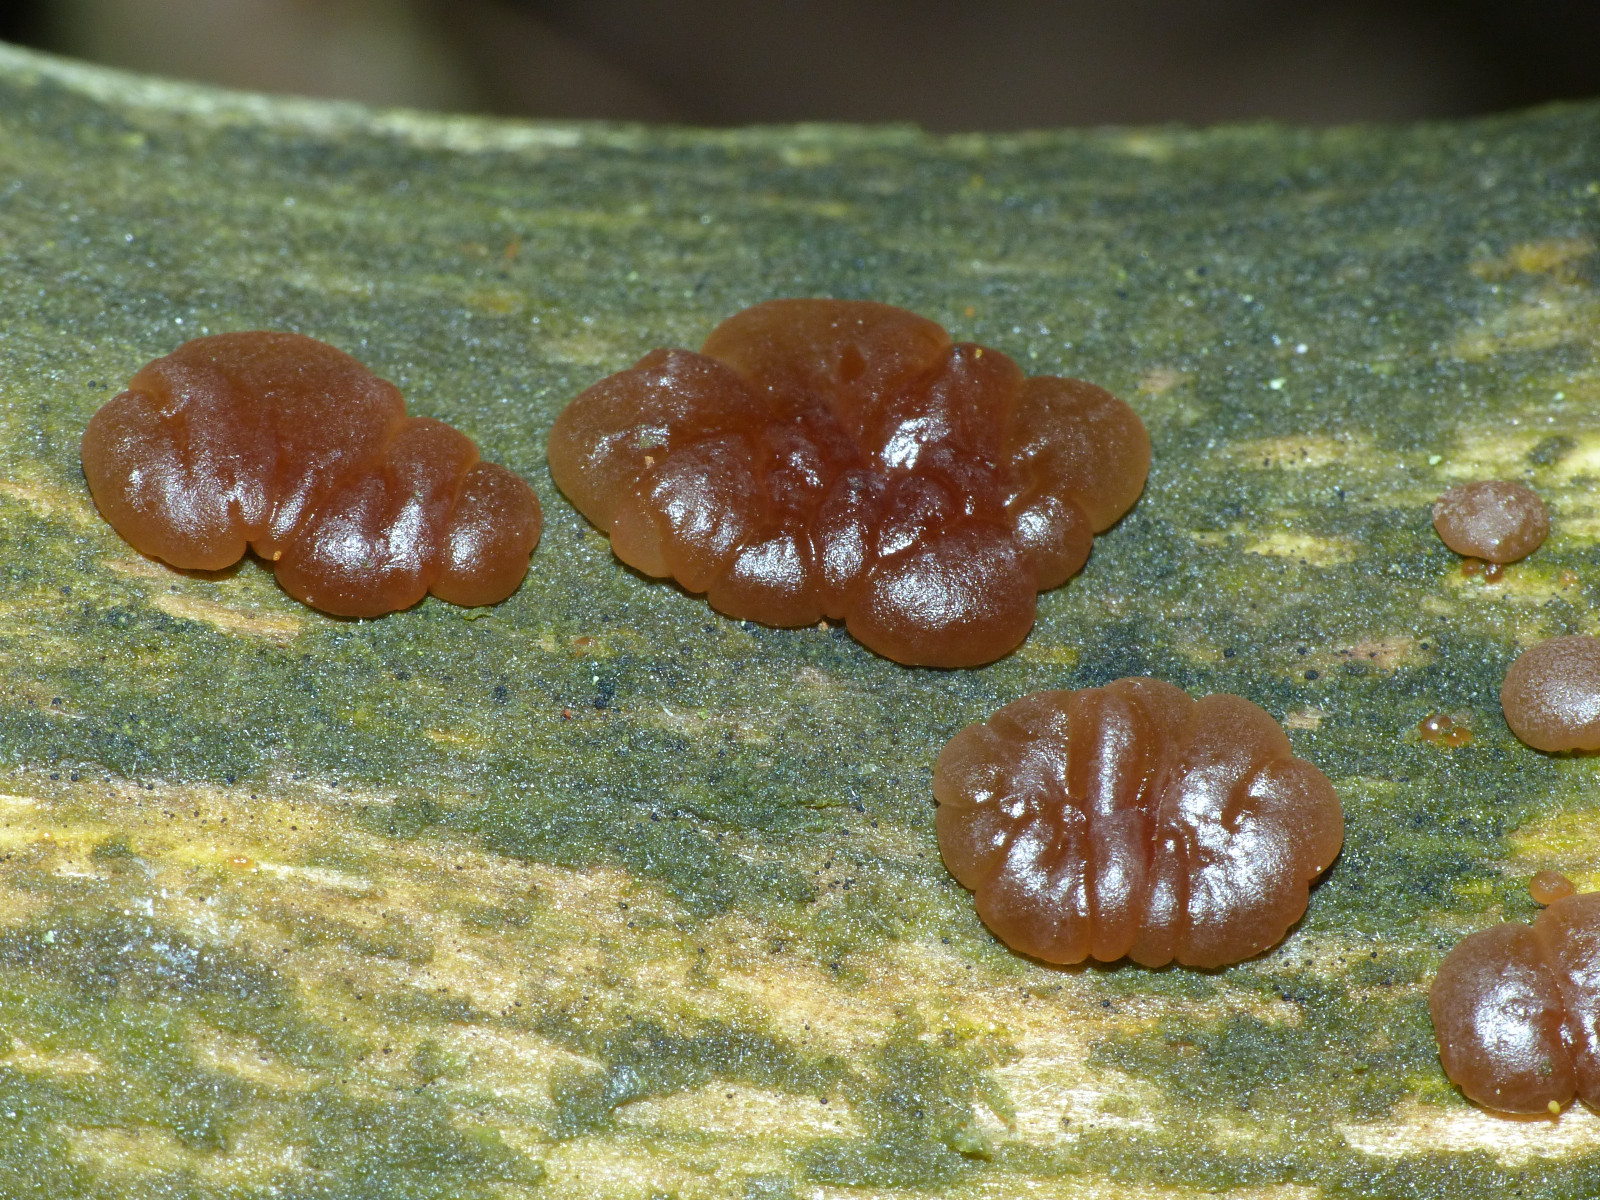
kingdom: Fungi
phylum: Basidiomycota
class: Agaricomycetes
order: Auriculariales
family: Auriculariaceae
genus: Exidia
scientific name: Exidia saccharina
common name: kandis-bævretop
